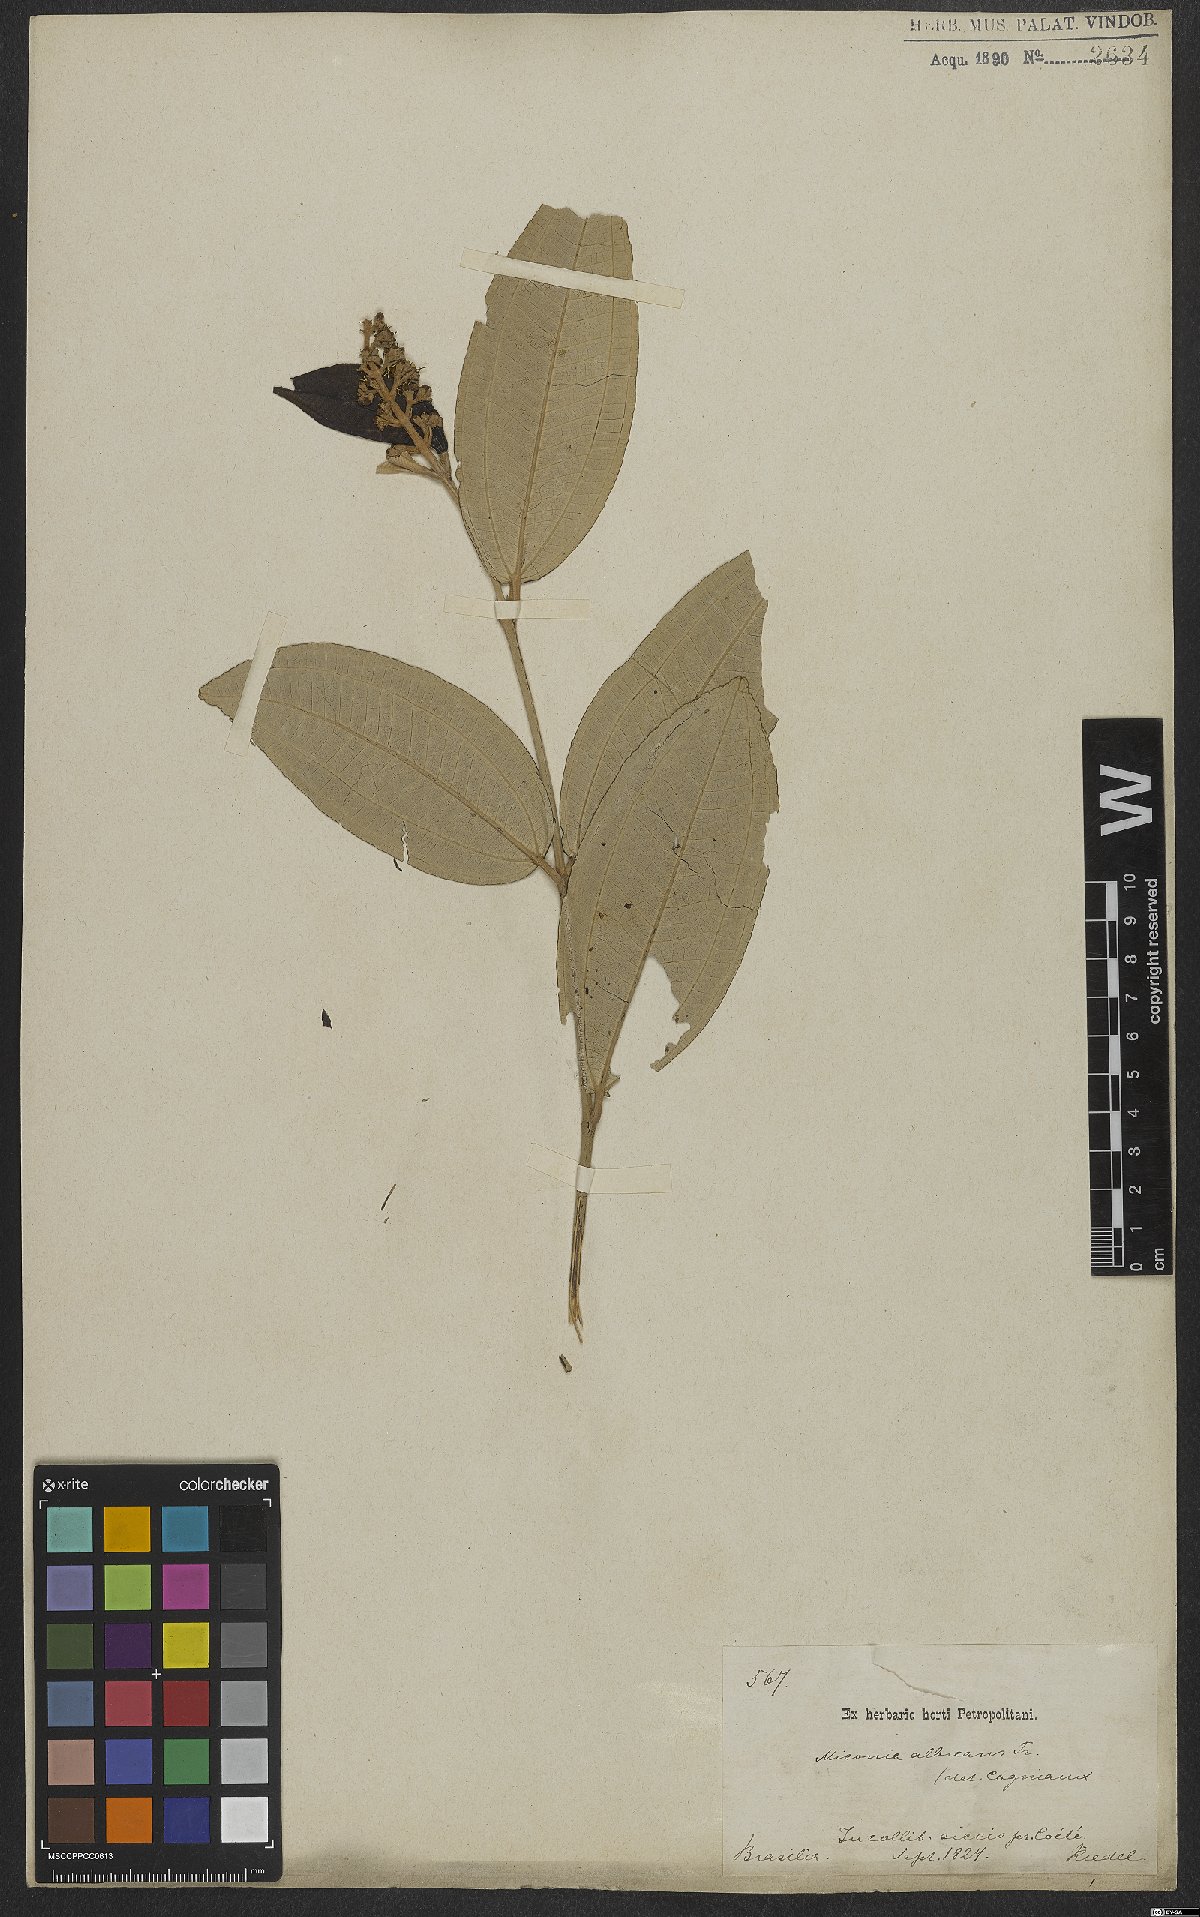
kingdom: Plantae
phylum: Tracheophyta
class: Magnoliopsida
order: Myrtales
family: Melastomataceae
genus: Miconia
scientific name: Miconia stenostachya
